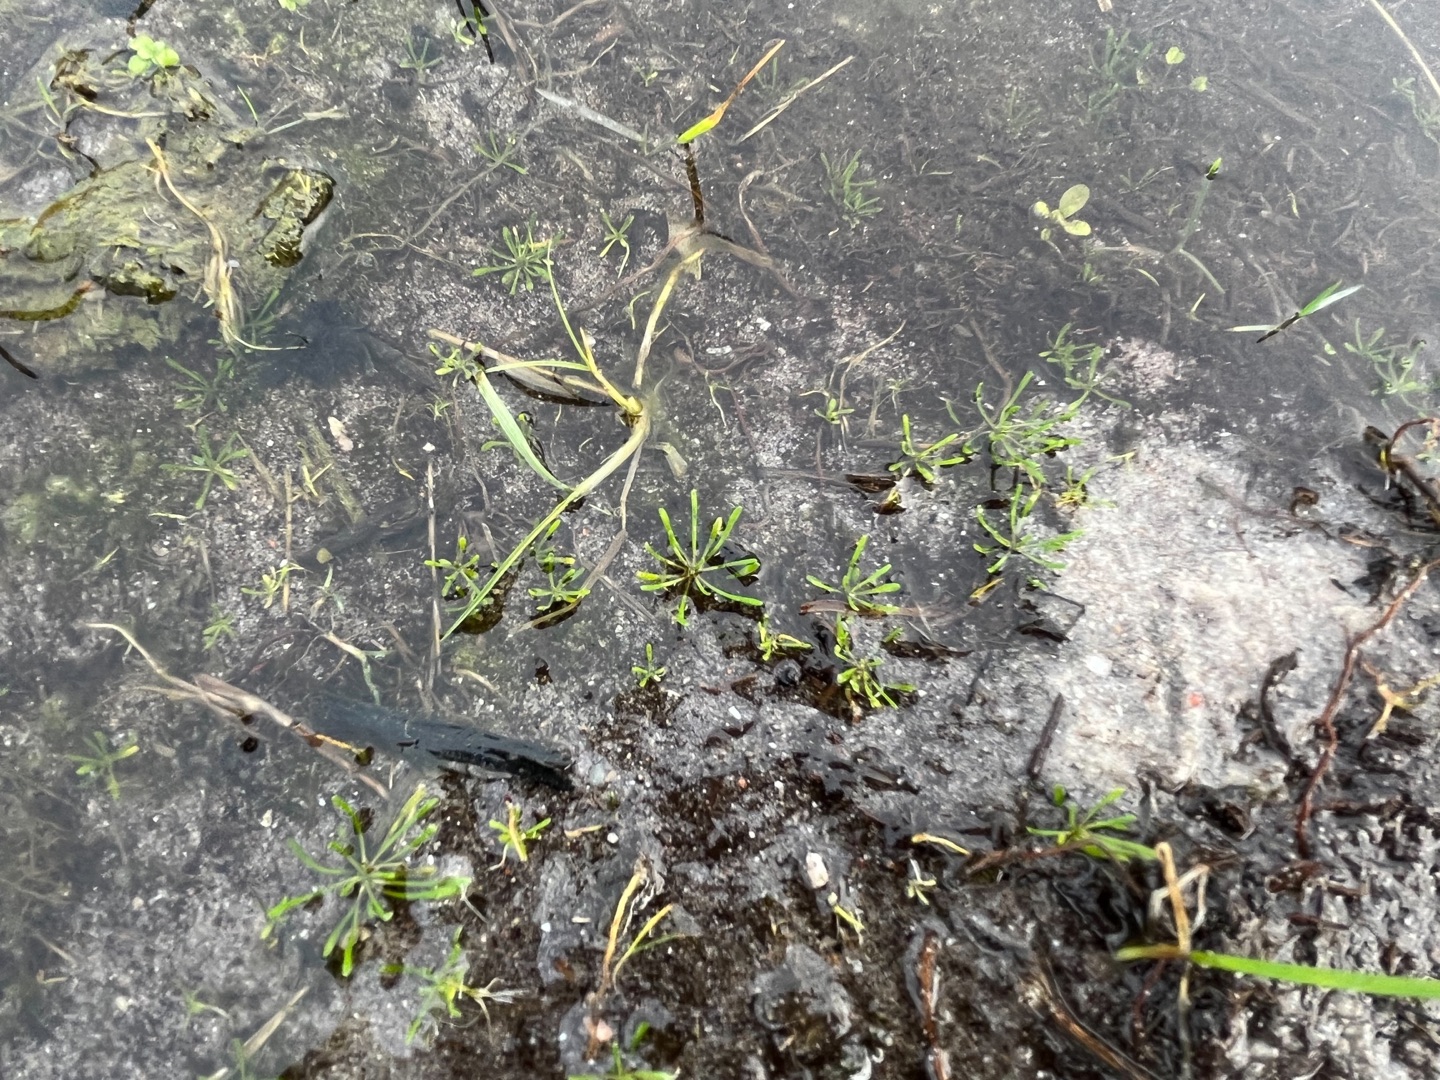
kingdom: Plantae
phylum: Tracheophyta
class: Magnoliopsida
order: Ranunculales
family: Ranunculaceae
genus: Myosurus
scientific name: Myosurus minimus
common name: Musehale
